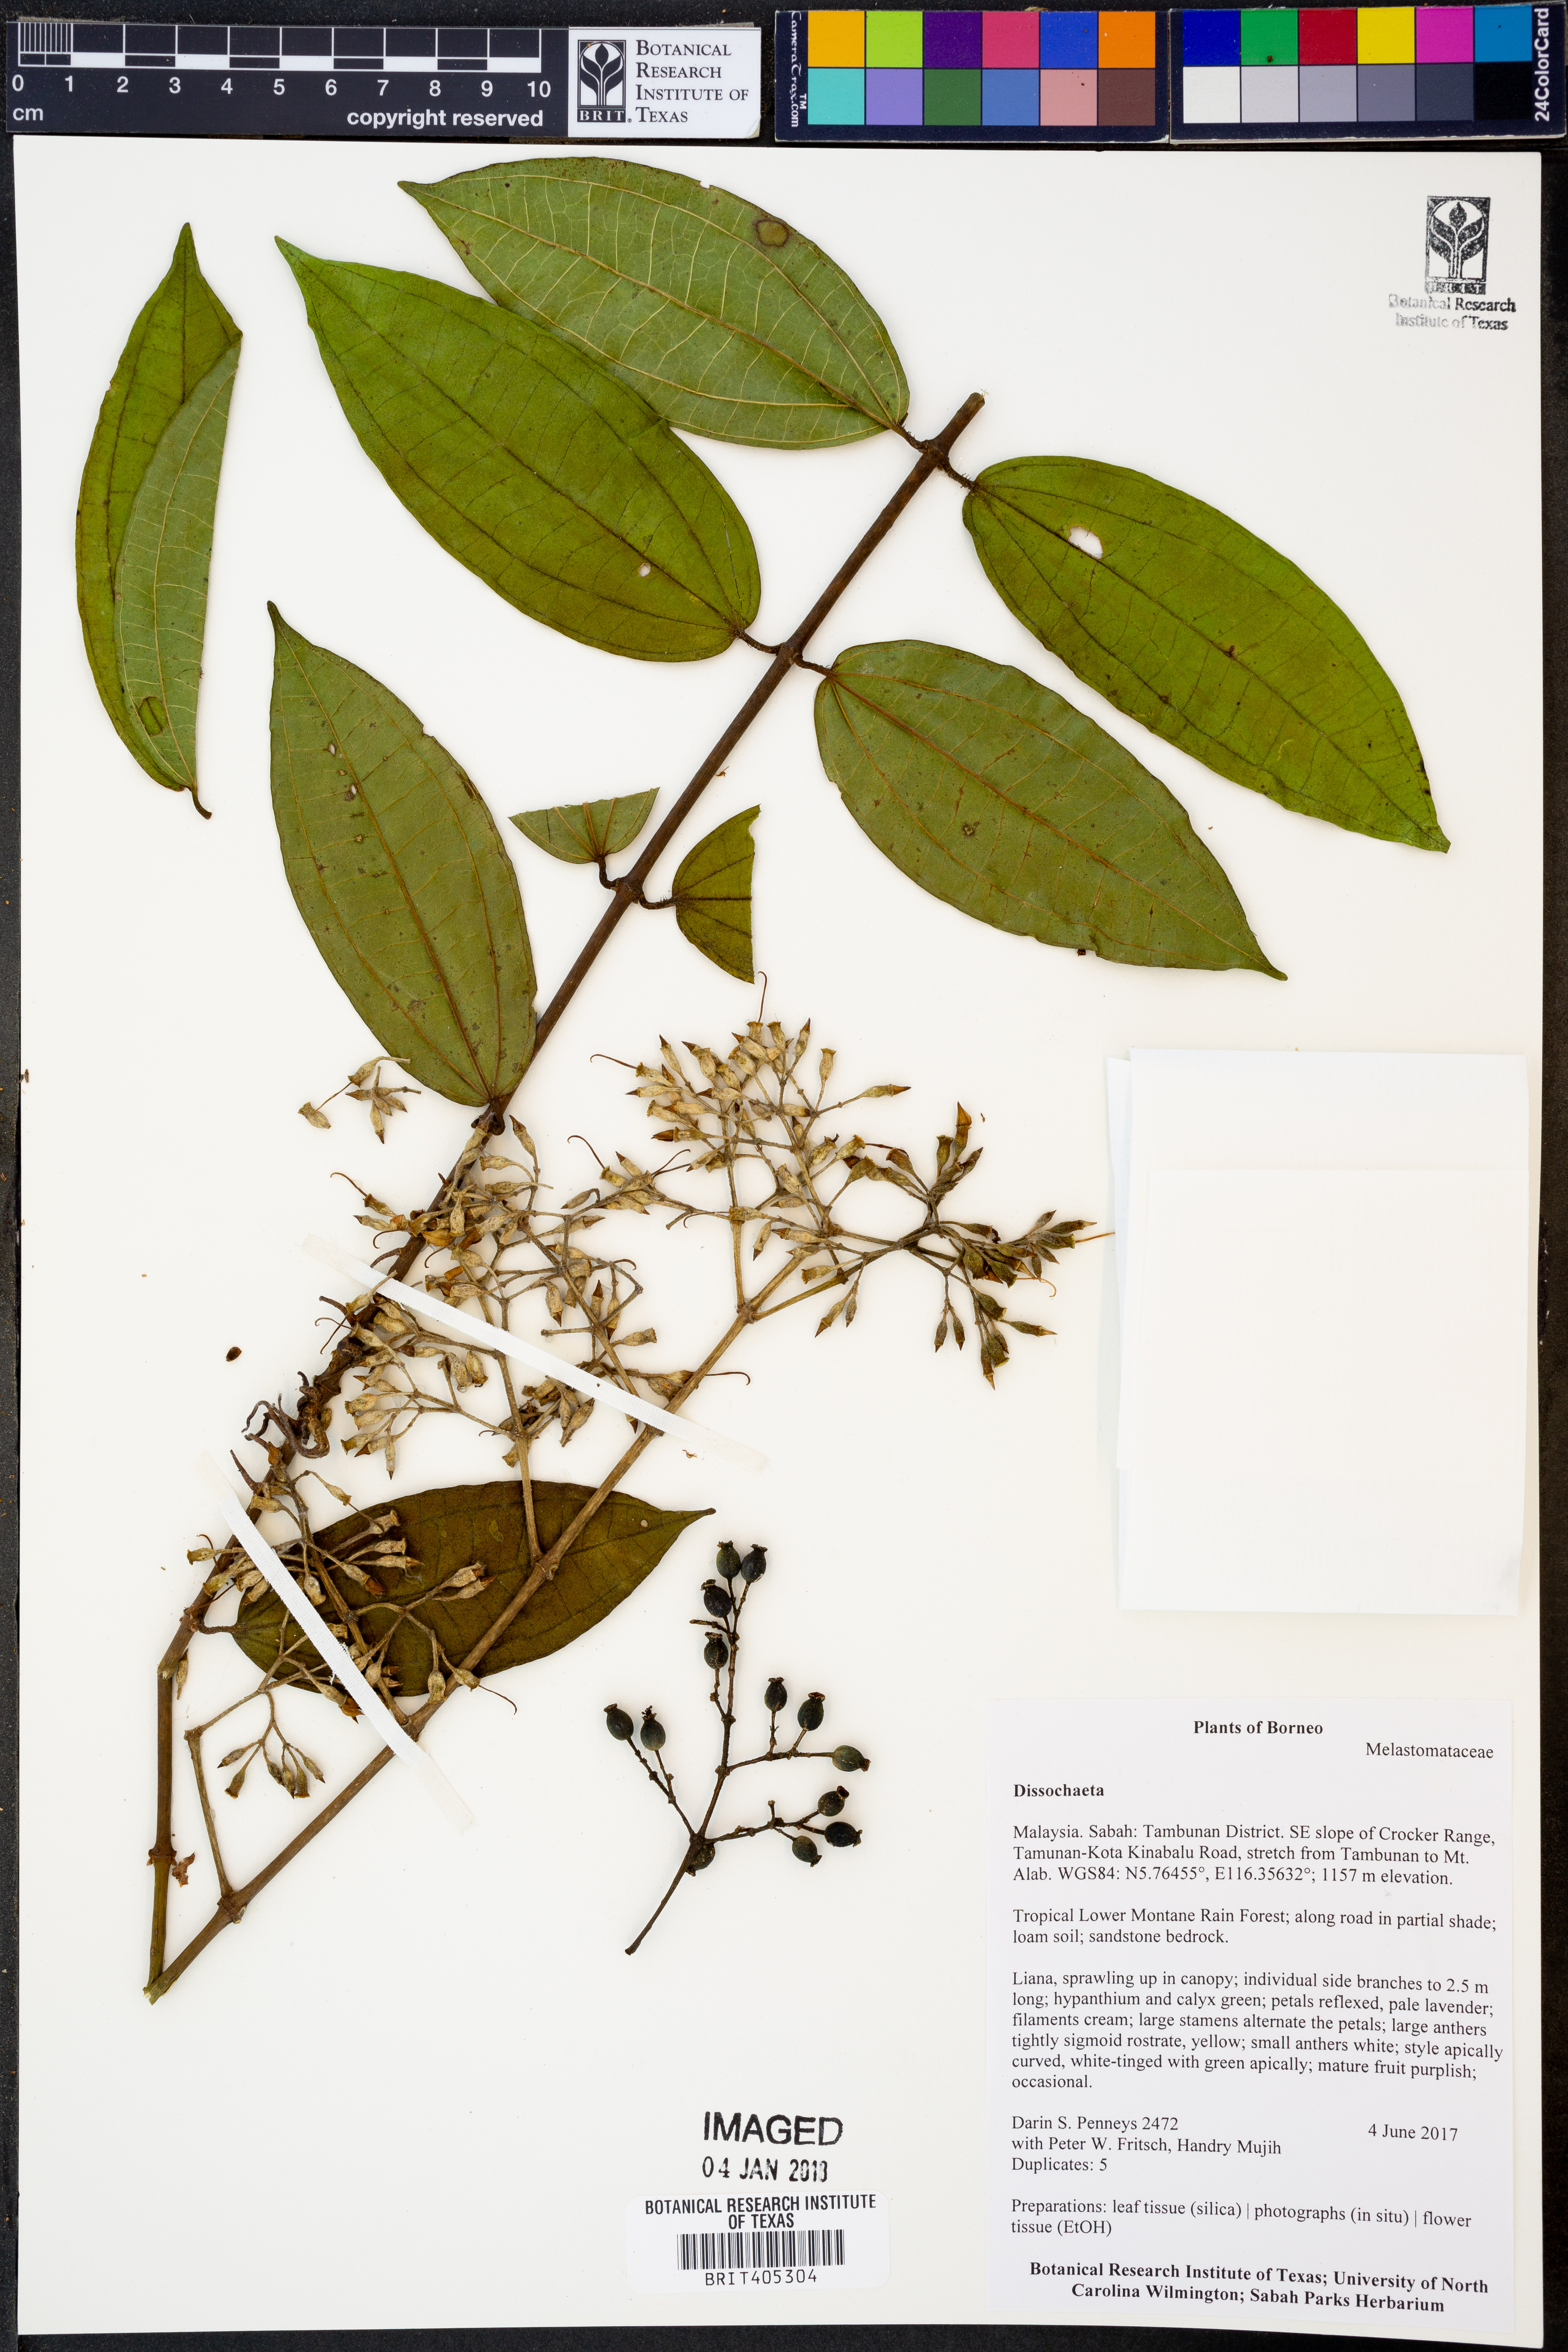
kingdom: Plantae
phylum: Tracheophyta
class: Magnoliopsida
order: Myrtales
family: Melastomataceae
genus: Dissochaeta
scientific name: Dissochaeta
